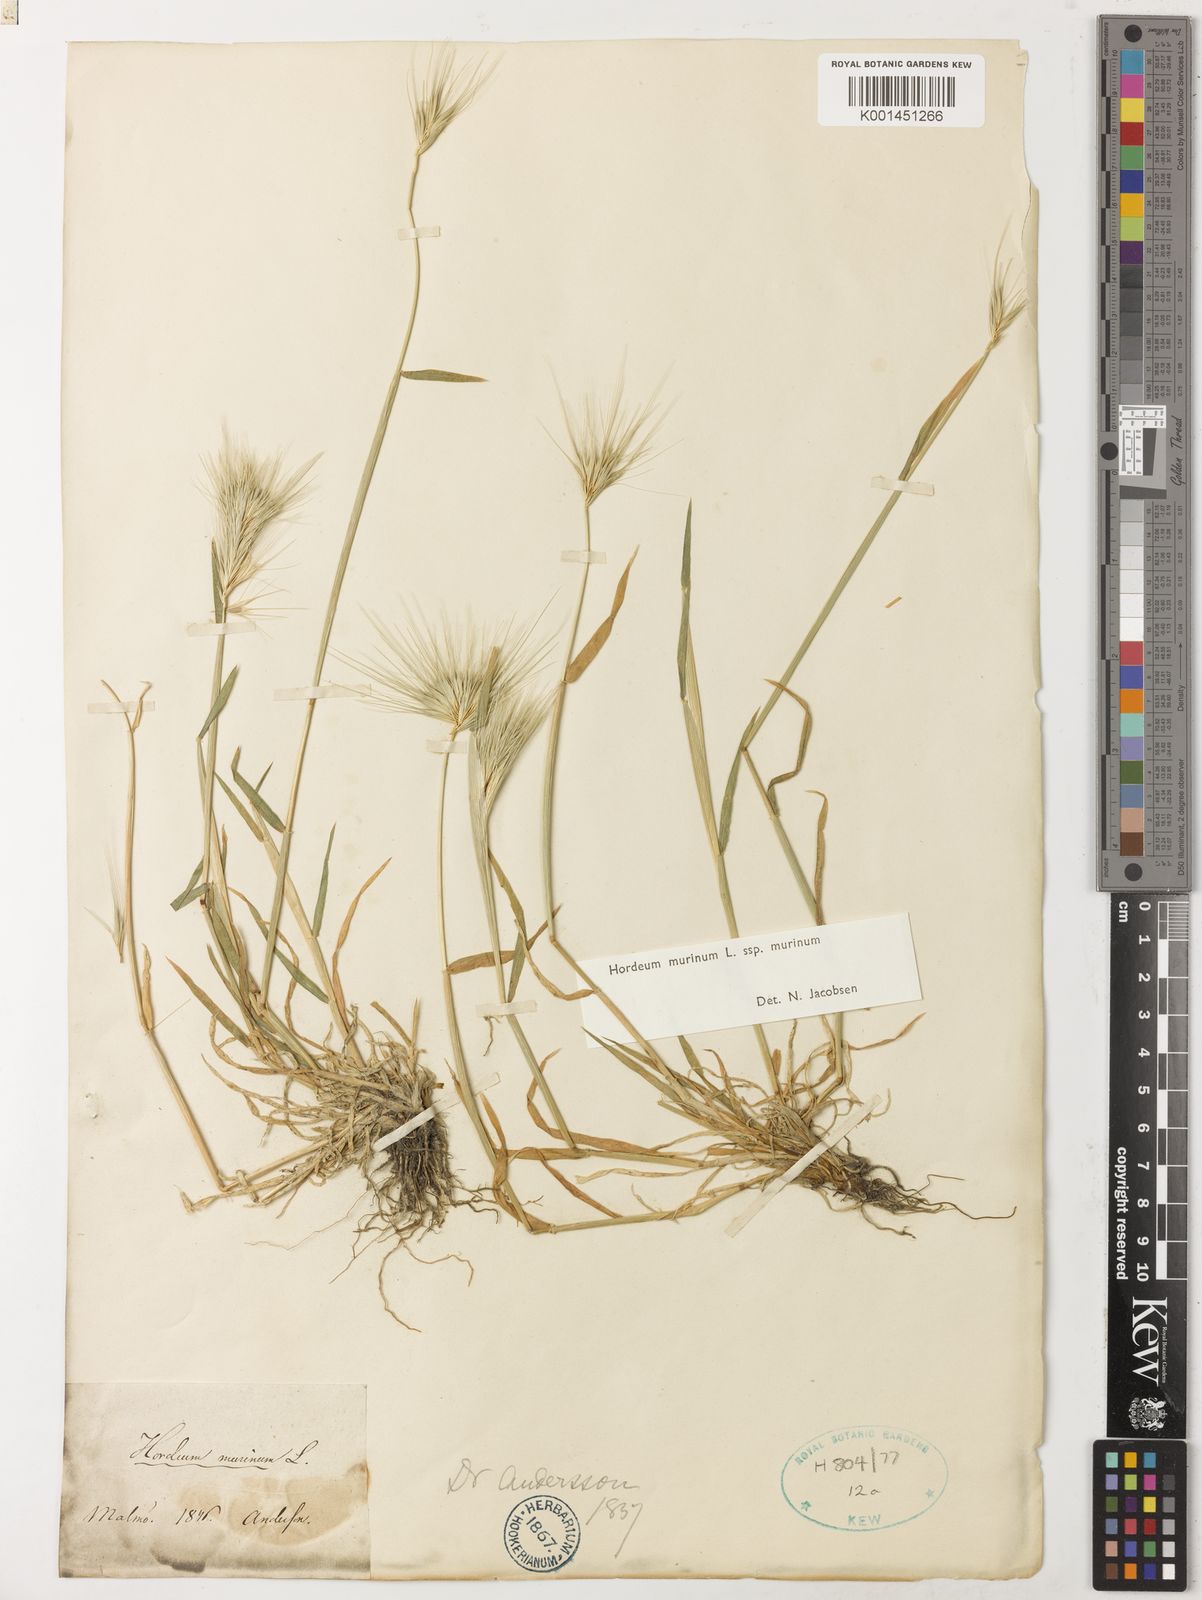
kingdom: Plantae
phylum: Tracheophyta
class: Liliopsida
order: Poales
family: Poaceae
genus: Hordeum
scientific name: Hordeum murinum
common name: Wall barley
